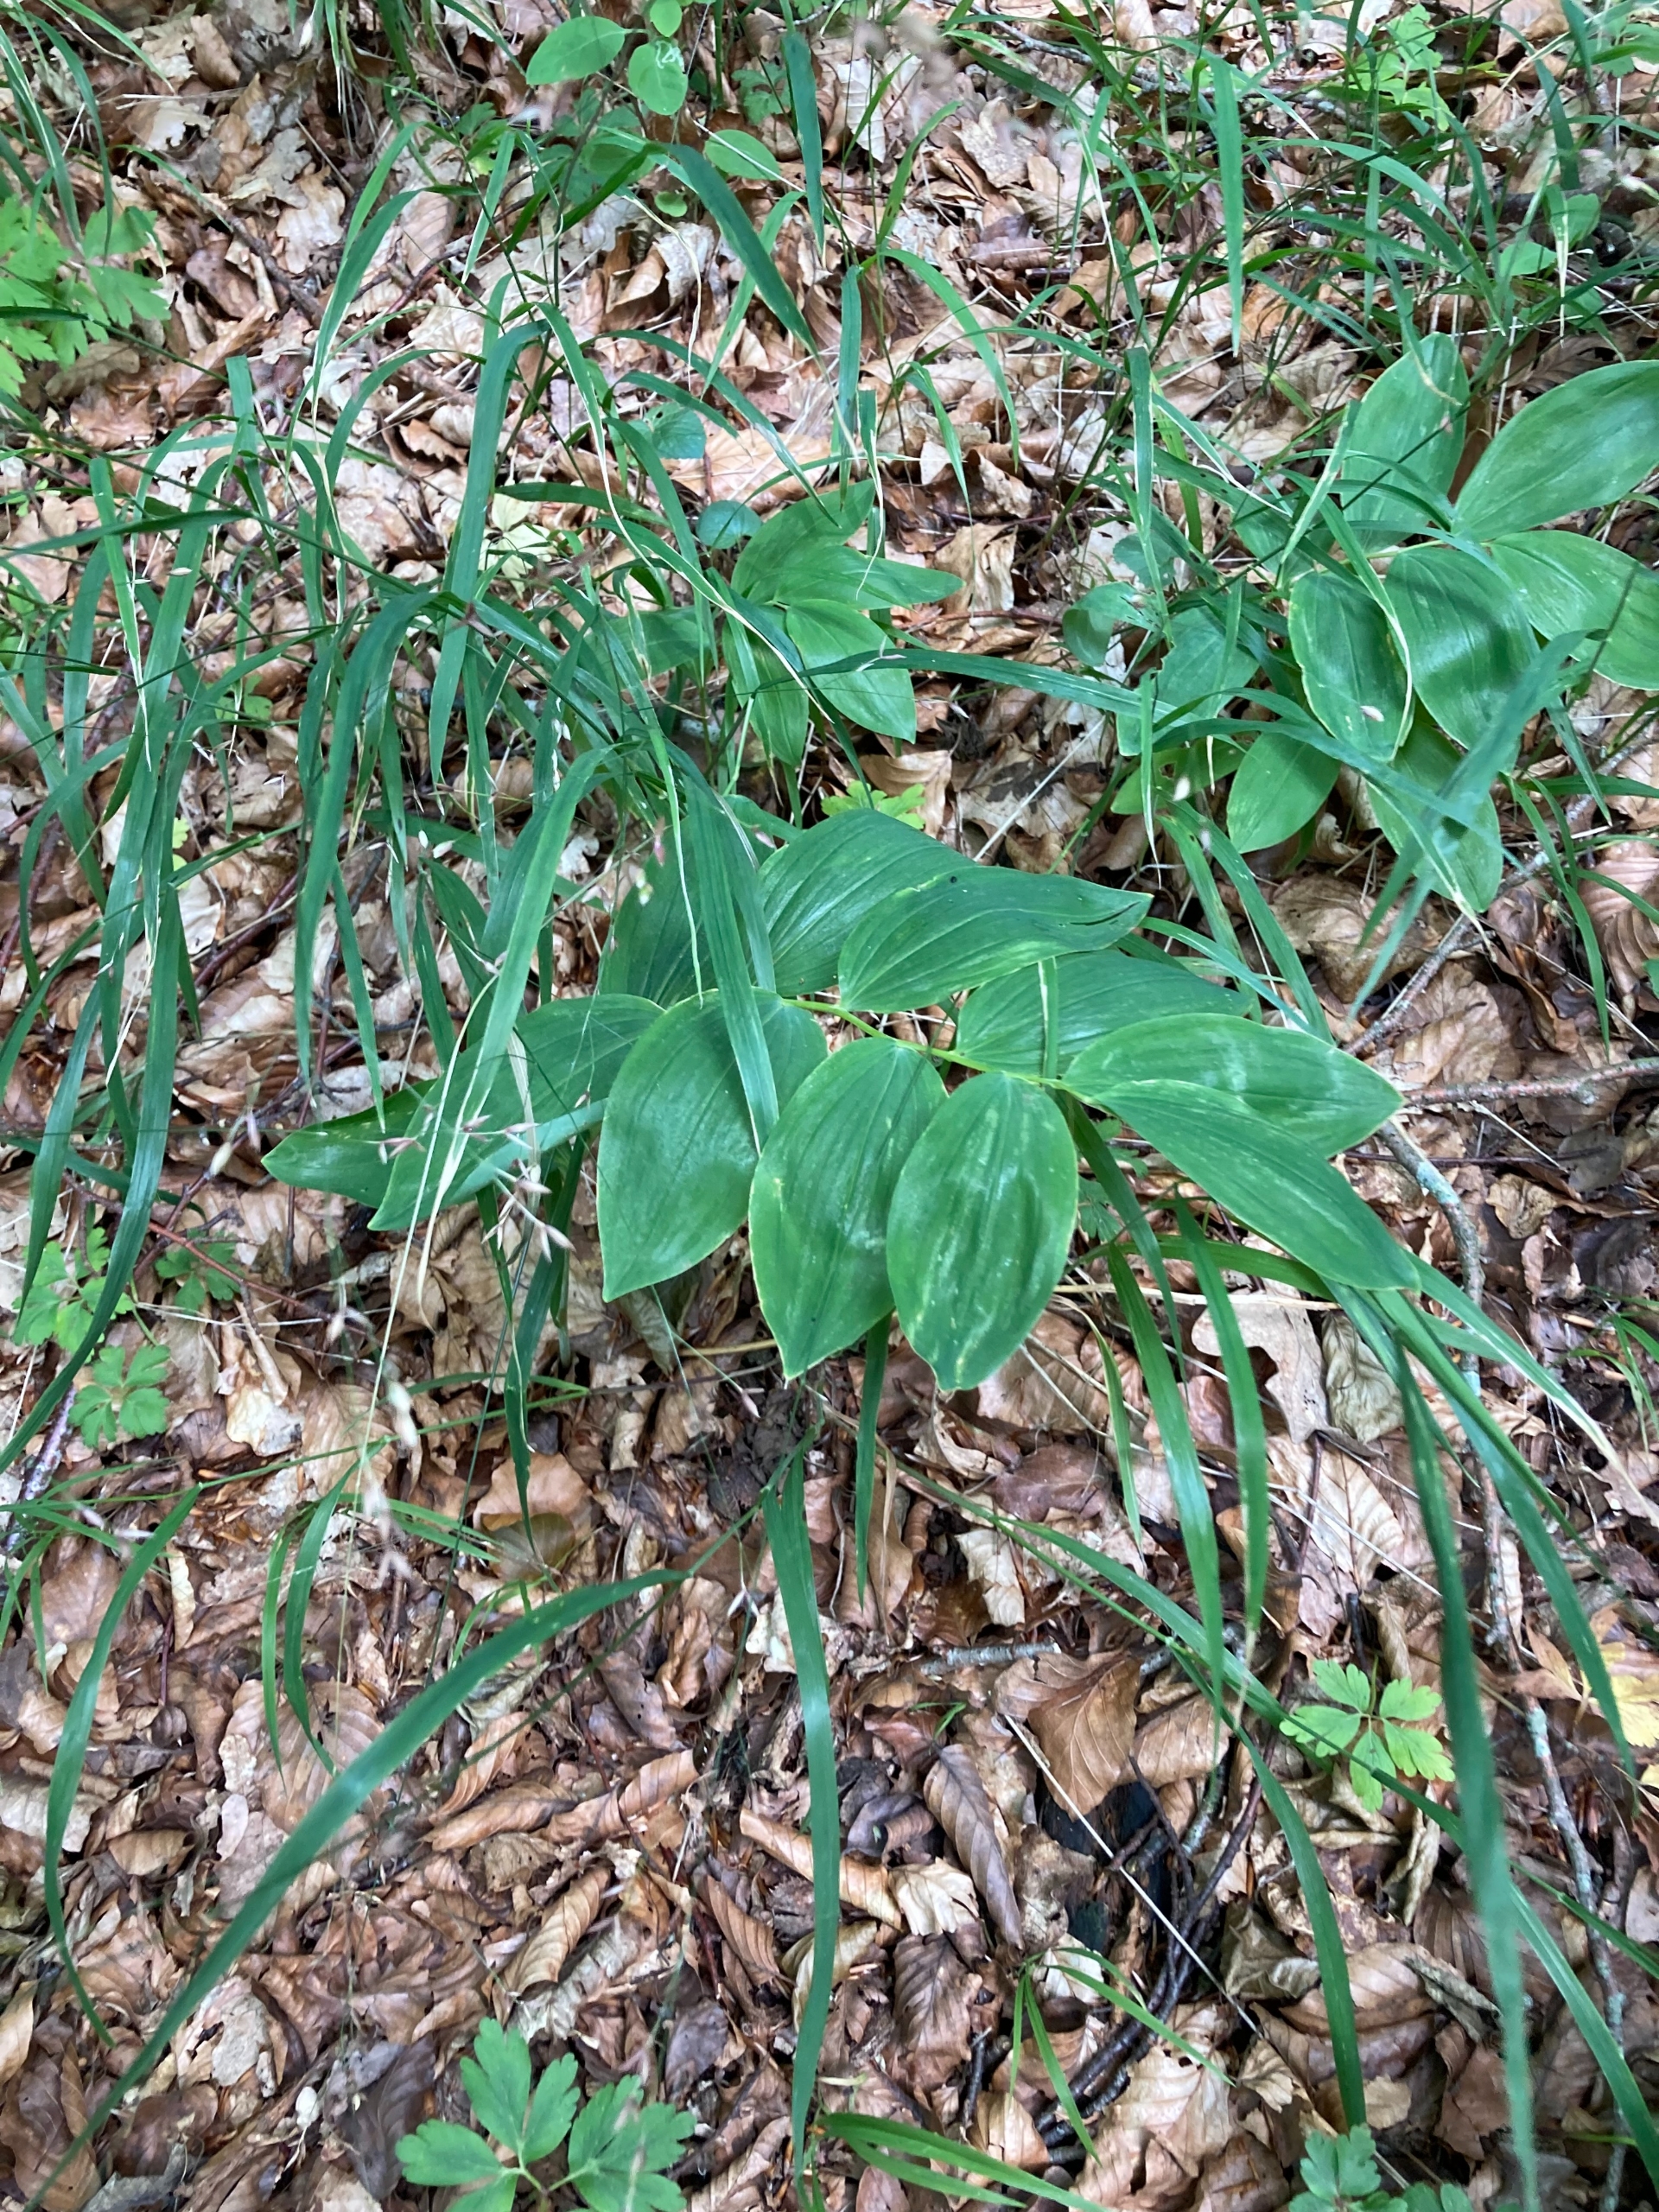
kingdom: Plantae
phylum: Tracheophyta
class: Liliopsida
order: Asparagales
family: Asparagaceae
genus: Polygonatum
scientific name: Polygonatum multiflorum
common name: Stor konval
